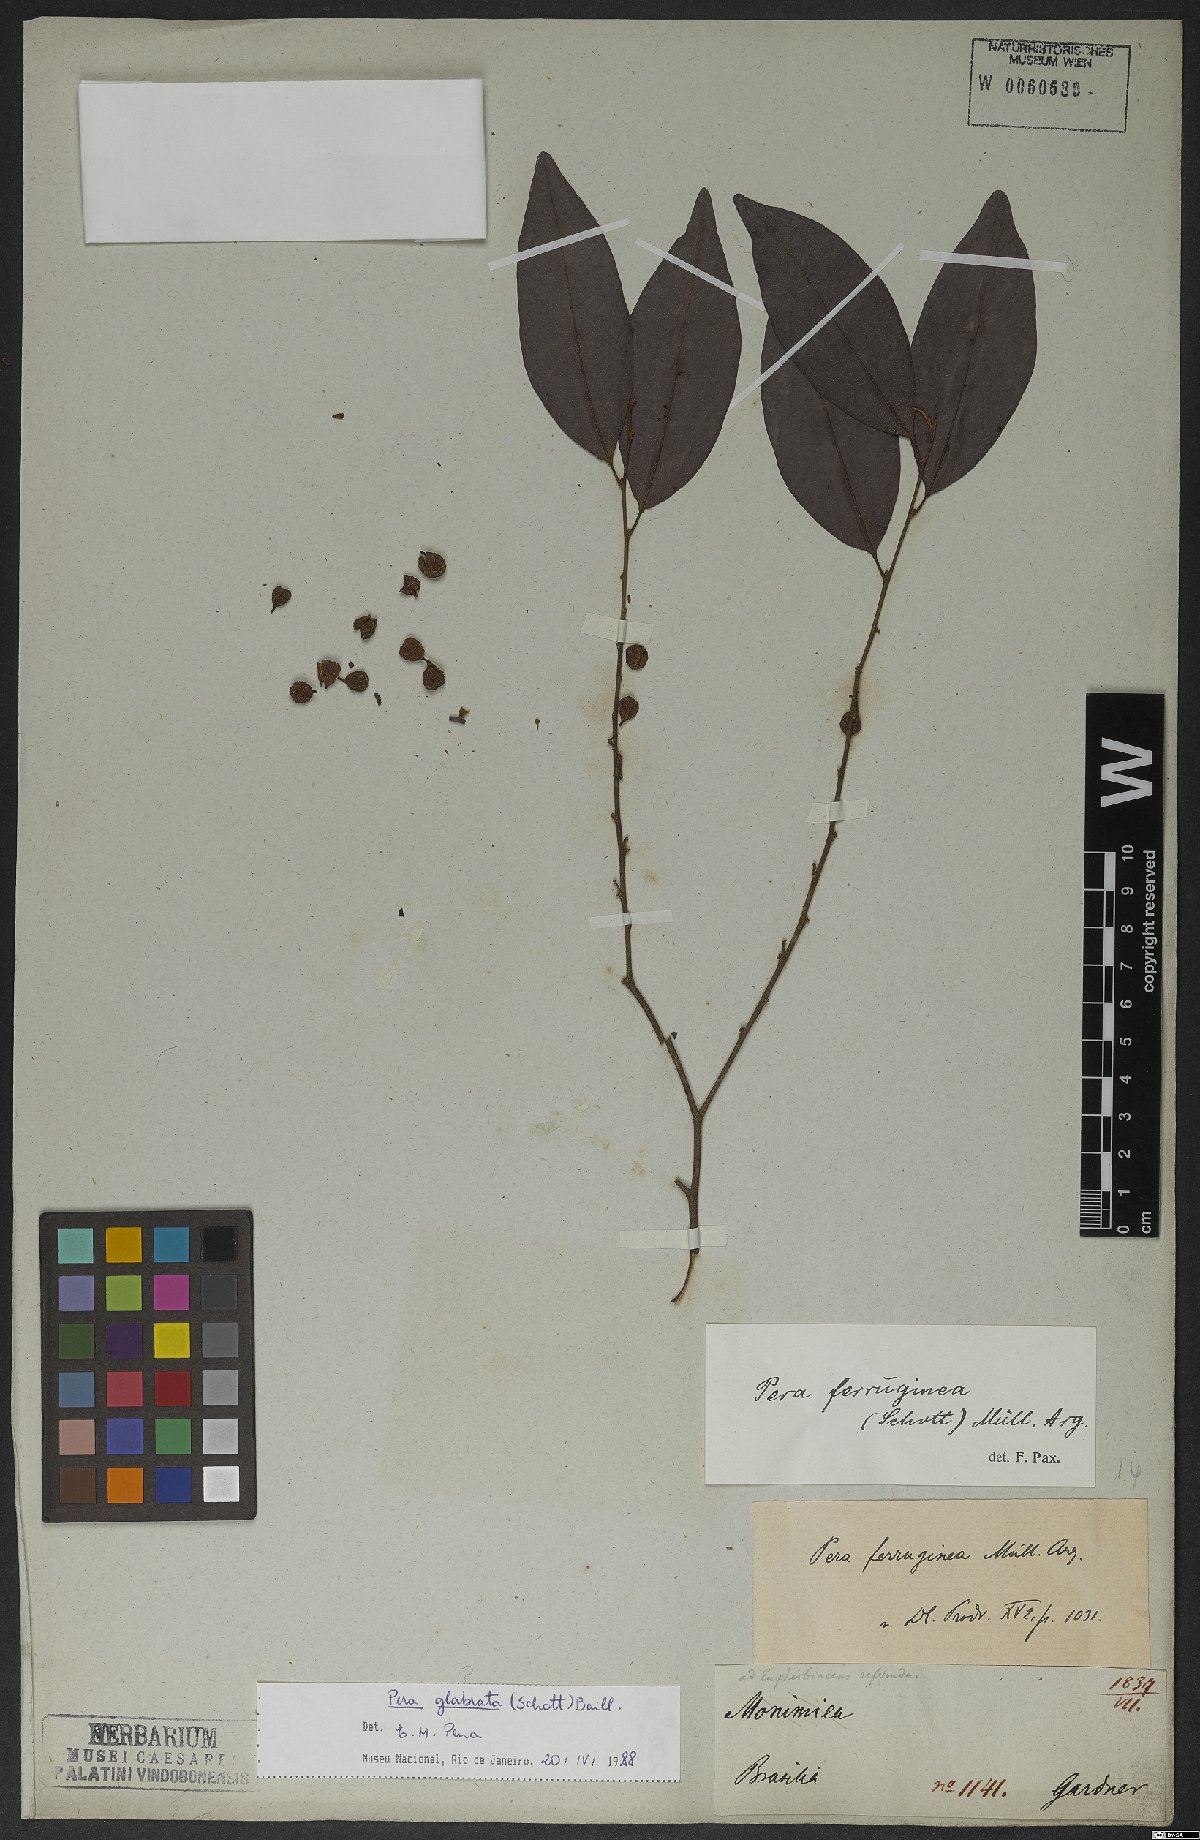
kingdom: Plantae
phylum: Tracheophyta
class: Magnoliopsida
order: Malpighiales
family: Peraceae
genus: Pera
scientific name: Pera glabrata
